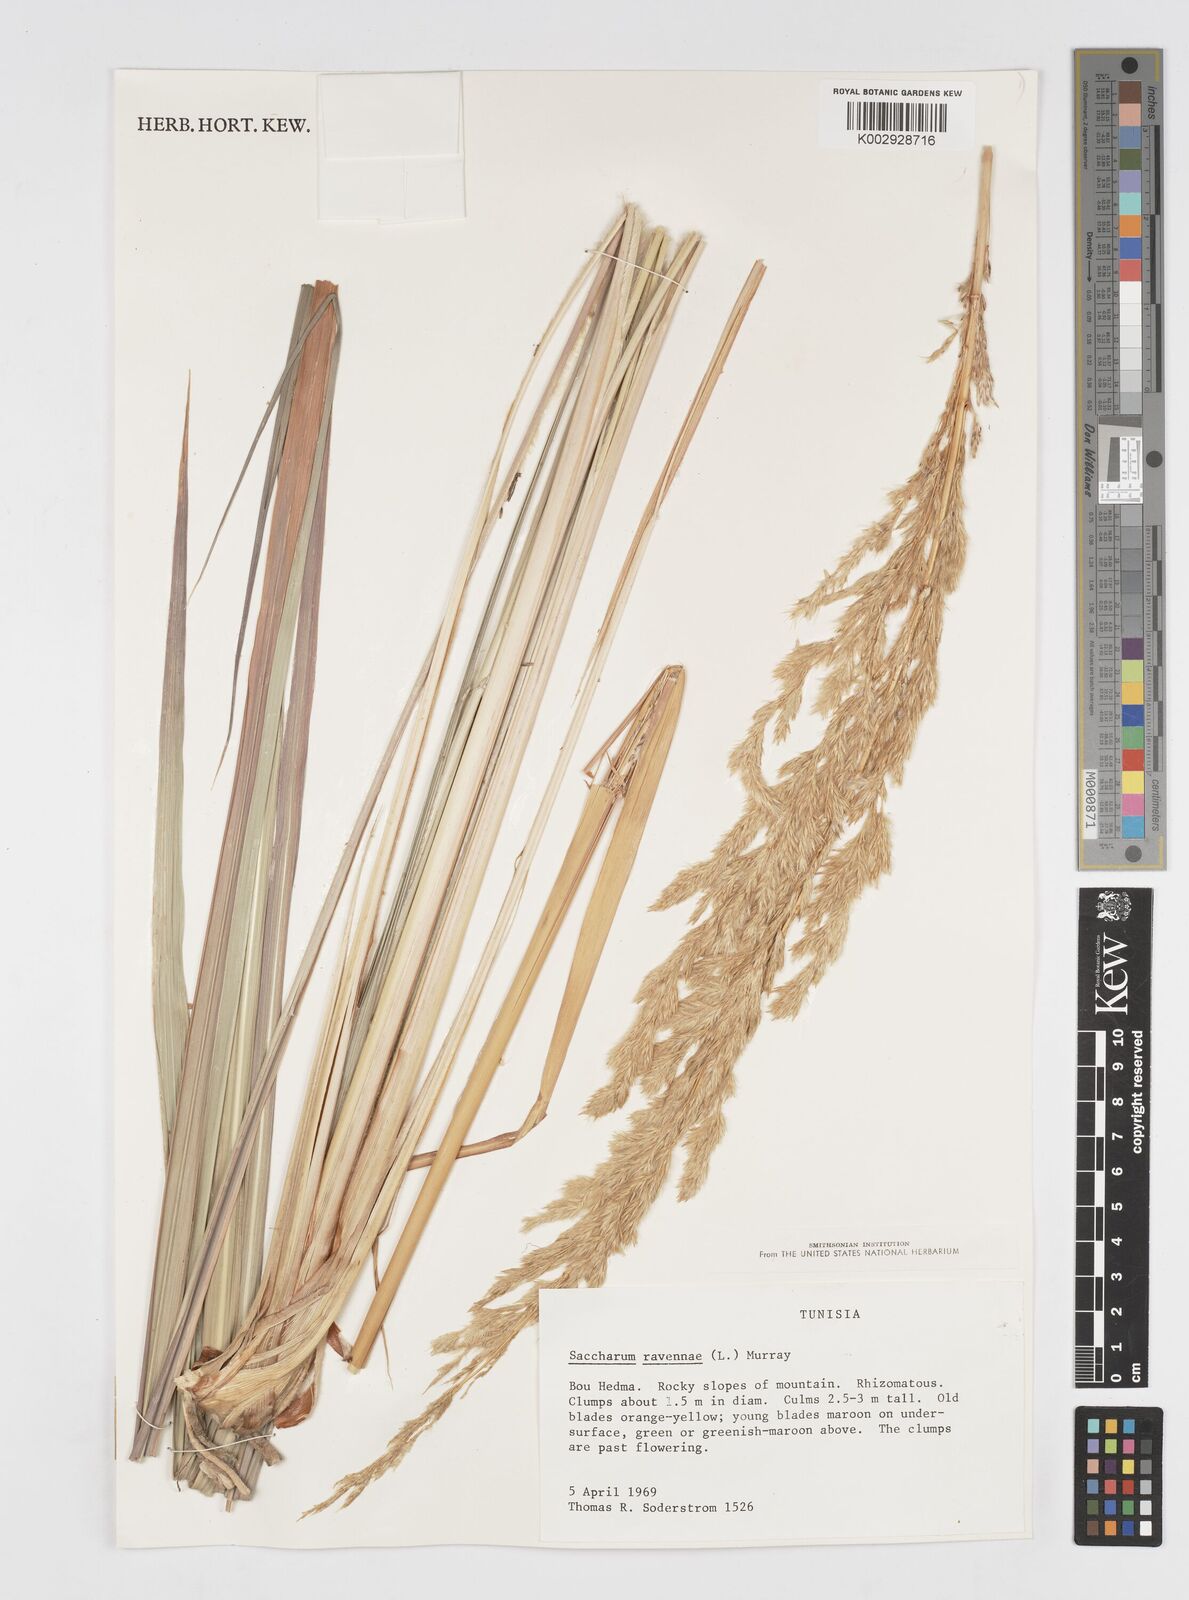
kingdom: Plantae
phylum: Tracheophyta
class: Liliopsida
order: Poales
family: Poaceae
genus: Tripidium
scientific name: Tripidium ravennae
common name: Ravenna grass
